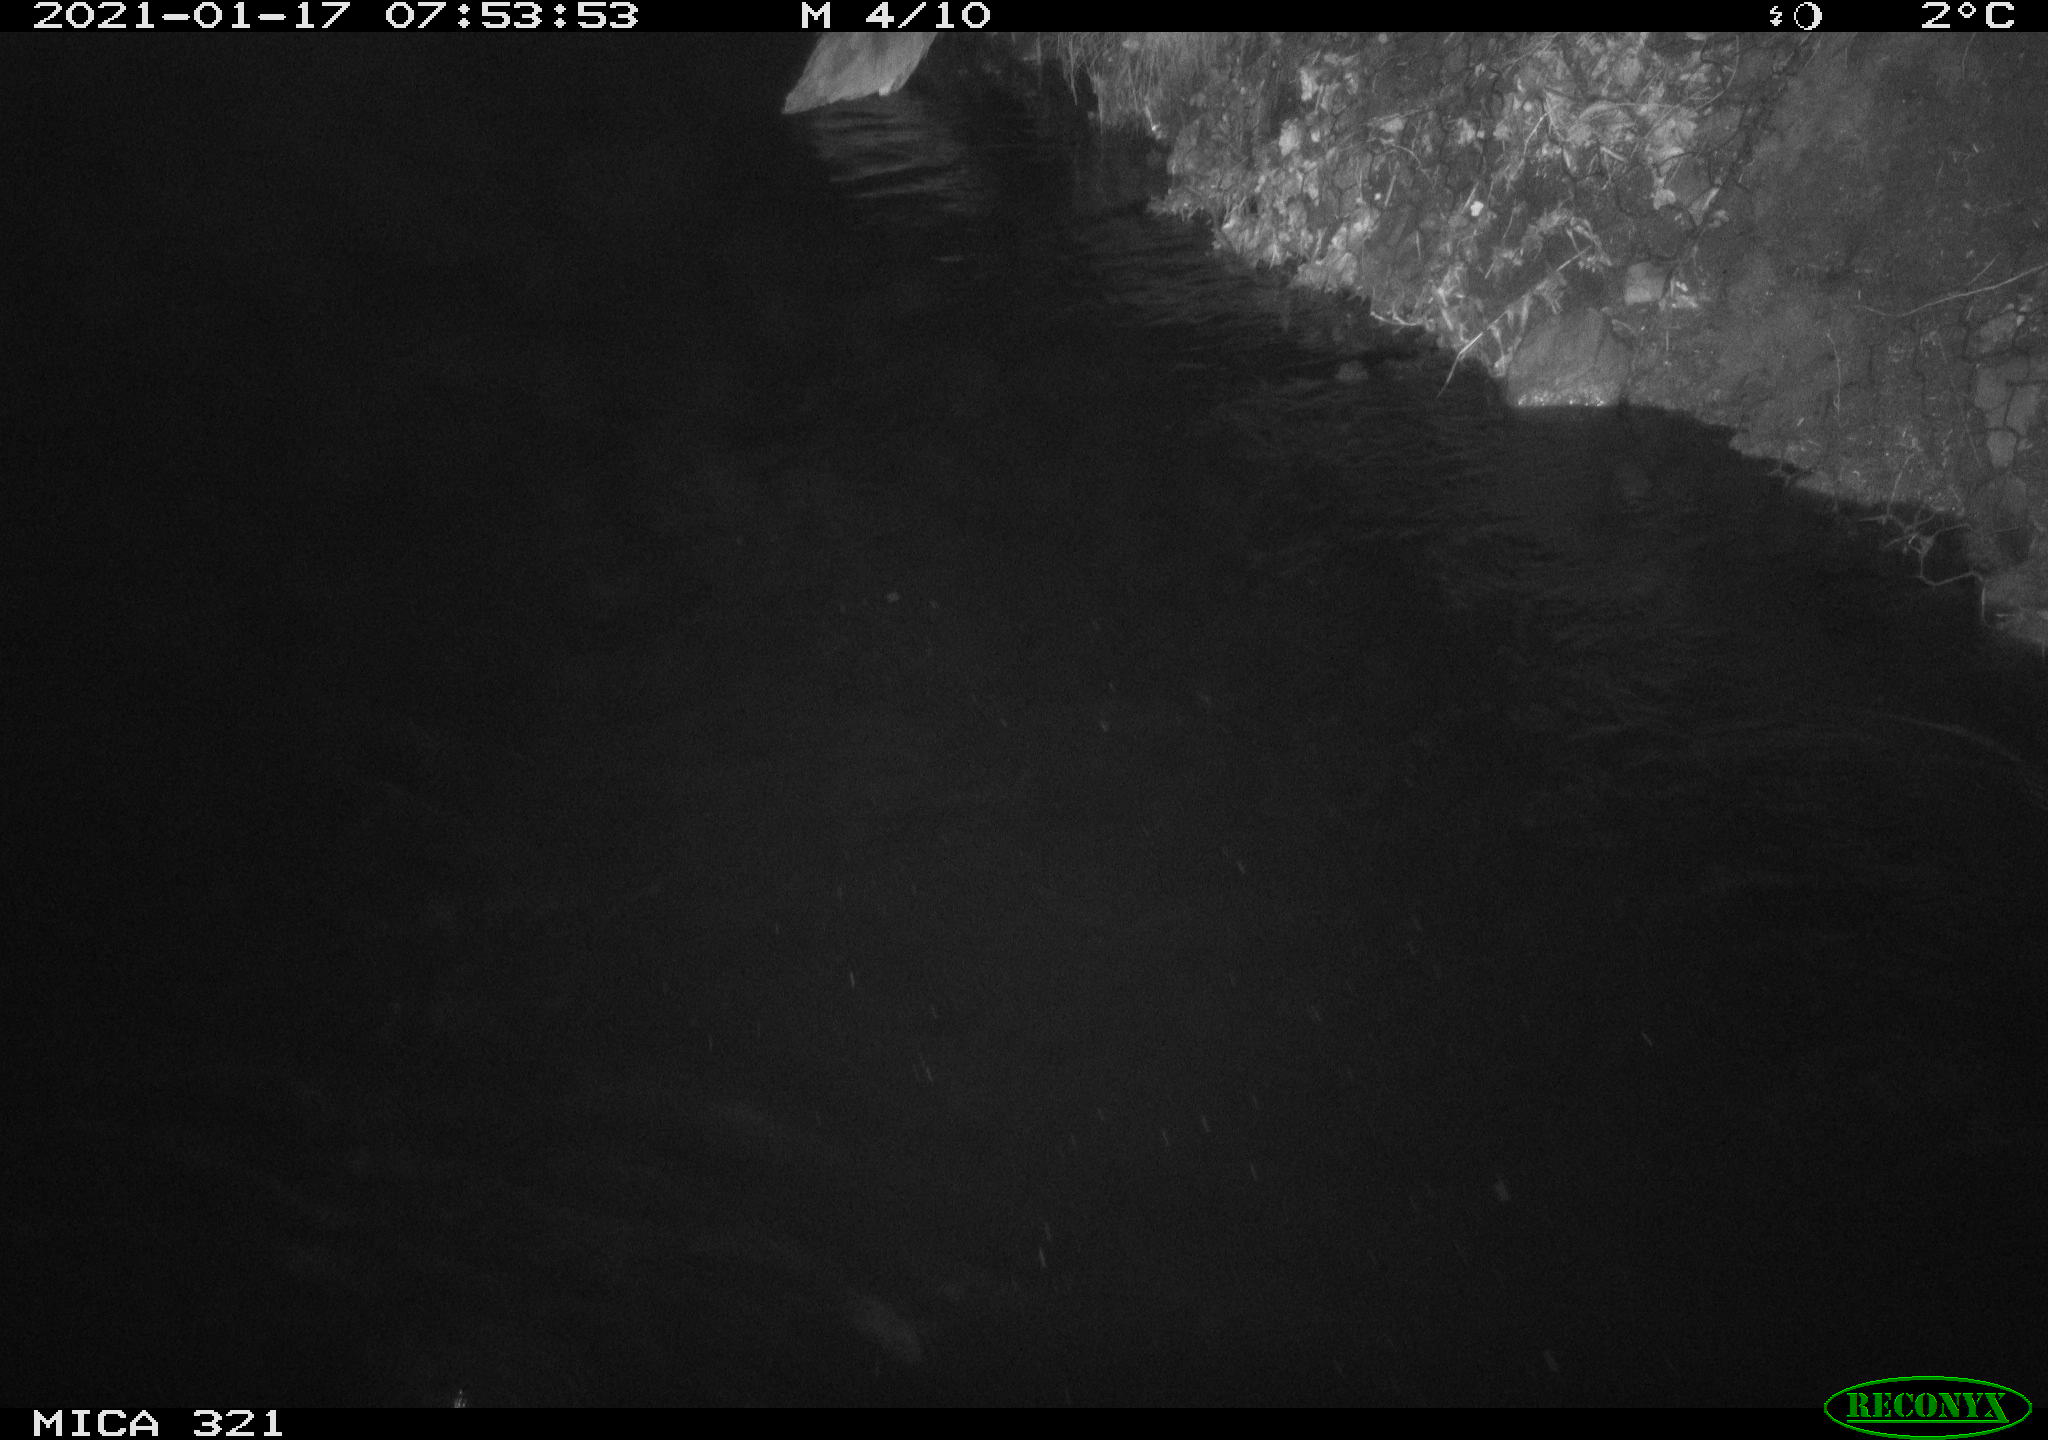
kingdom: Animalia
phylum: Chordata
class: Aves
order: Anseriformes
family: Anatidae
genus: Anas
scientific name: Anas platyrhynchos
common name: Mallard
